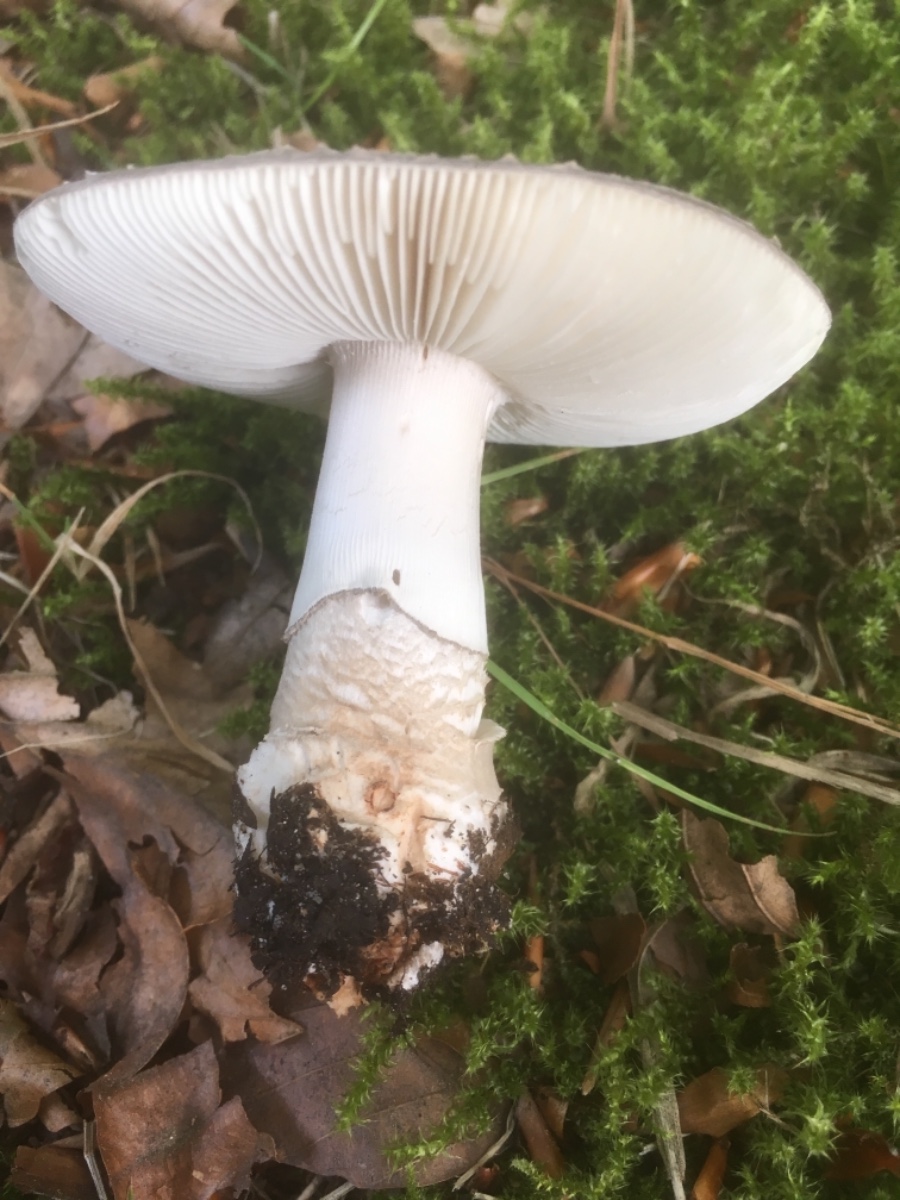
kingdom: Fungi
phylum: Basidiomycota
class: Agaricomycetes
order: Agaricales
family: Amanitaceae
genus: Amanita
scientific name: Amanita
